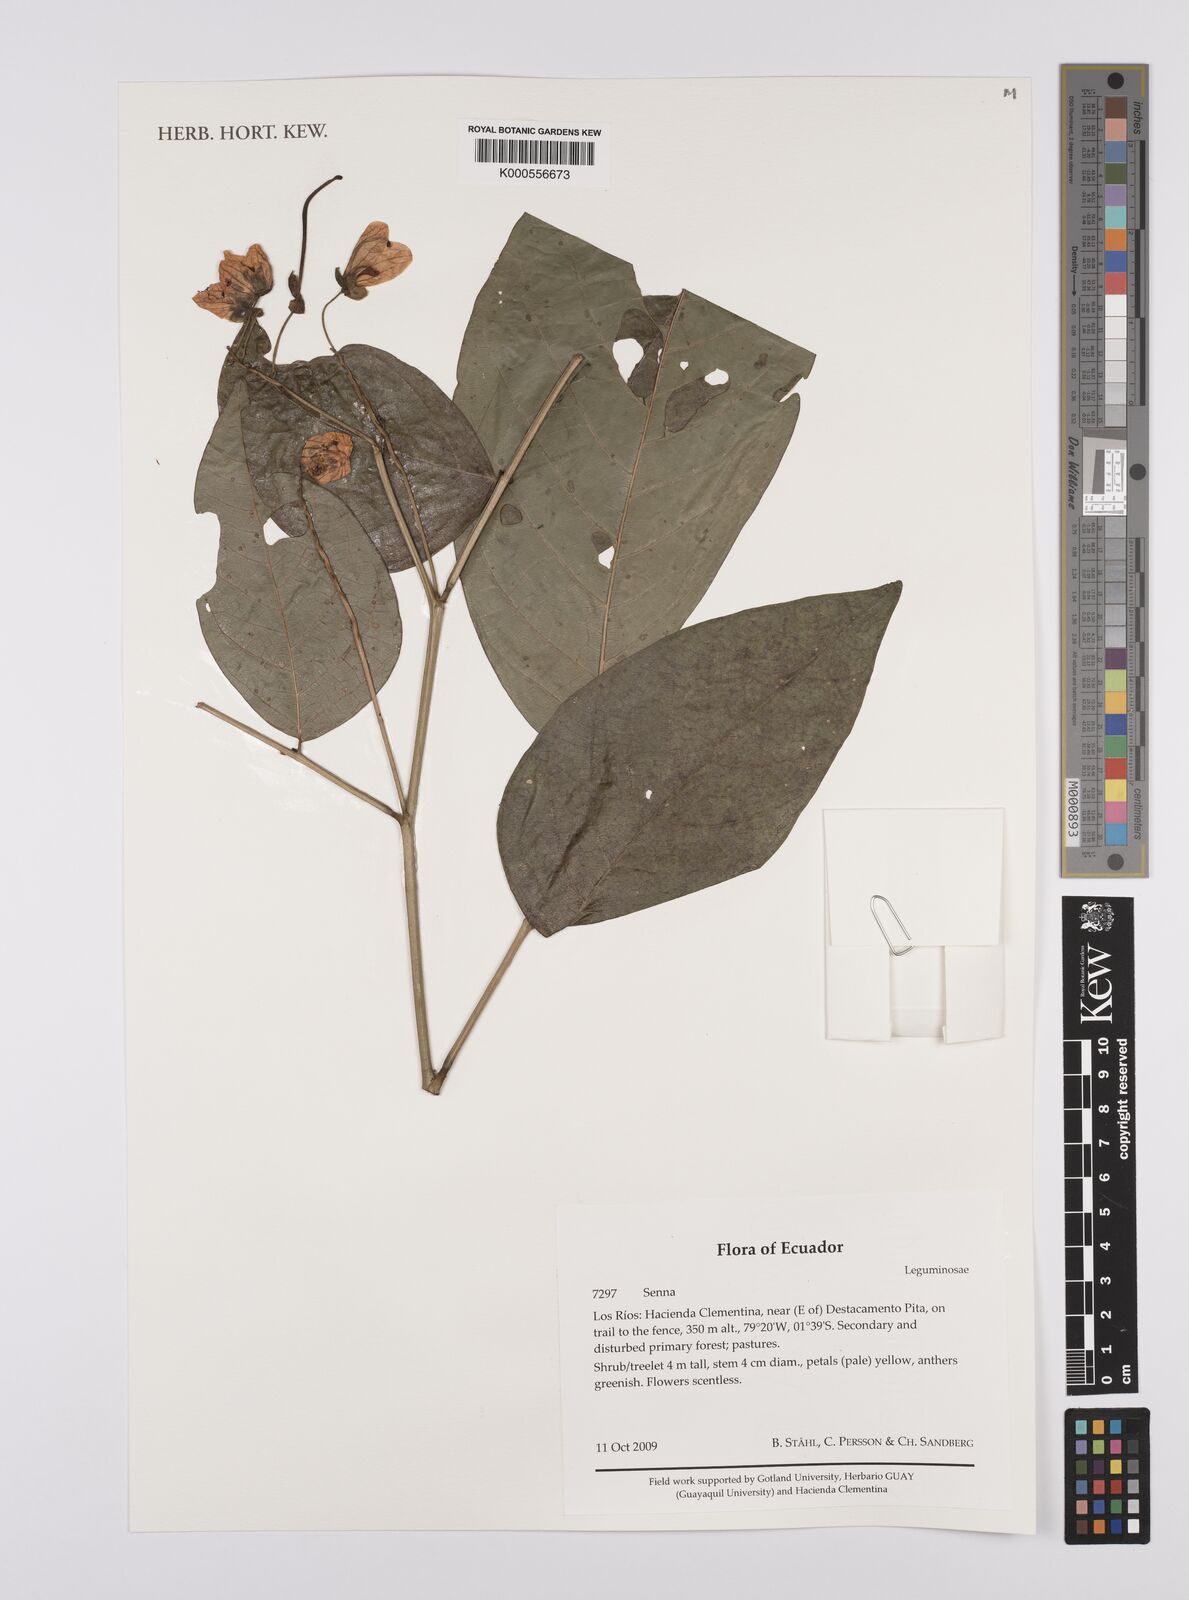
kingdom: Plantae
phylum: Tracheophyta
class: Magnoliopsida
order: Fabales
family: Fabaceae
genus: Senna
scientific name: Senna
